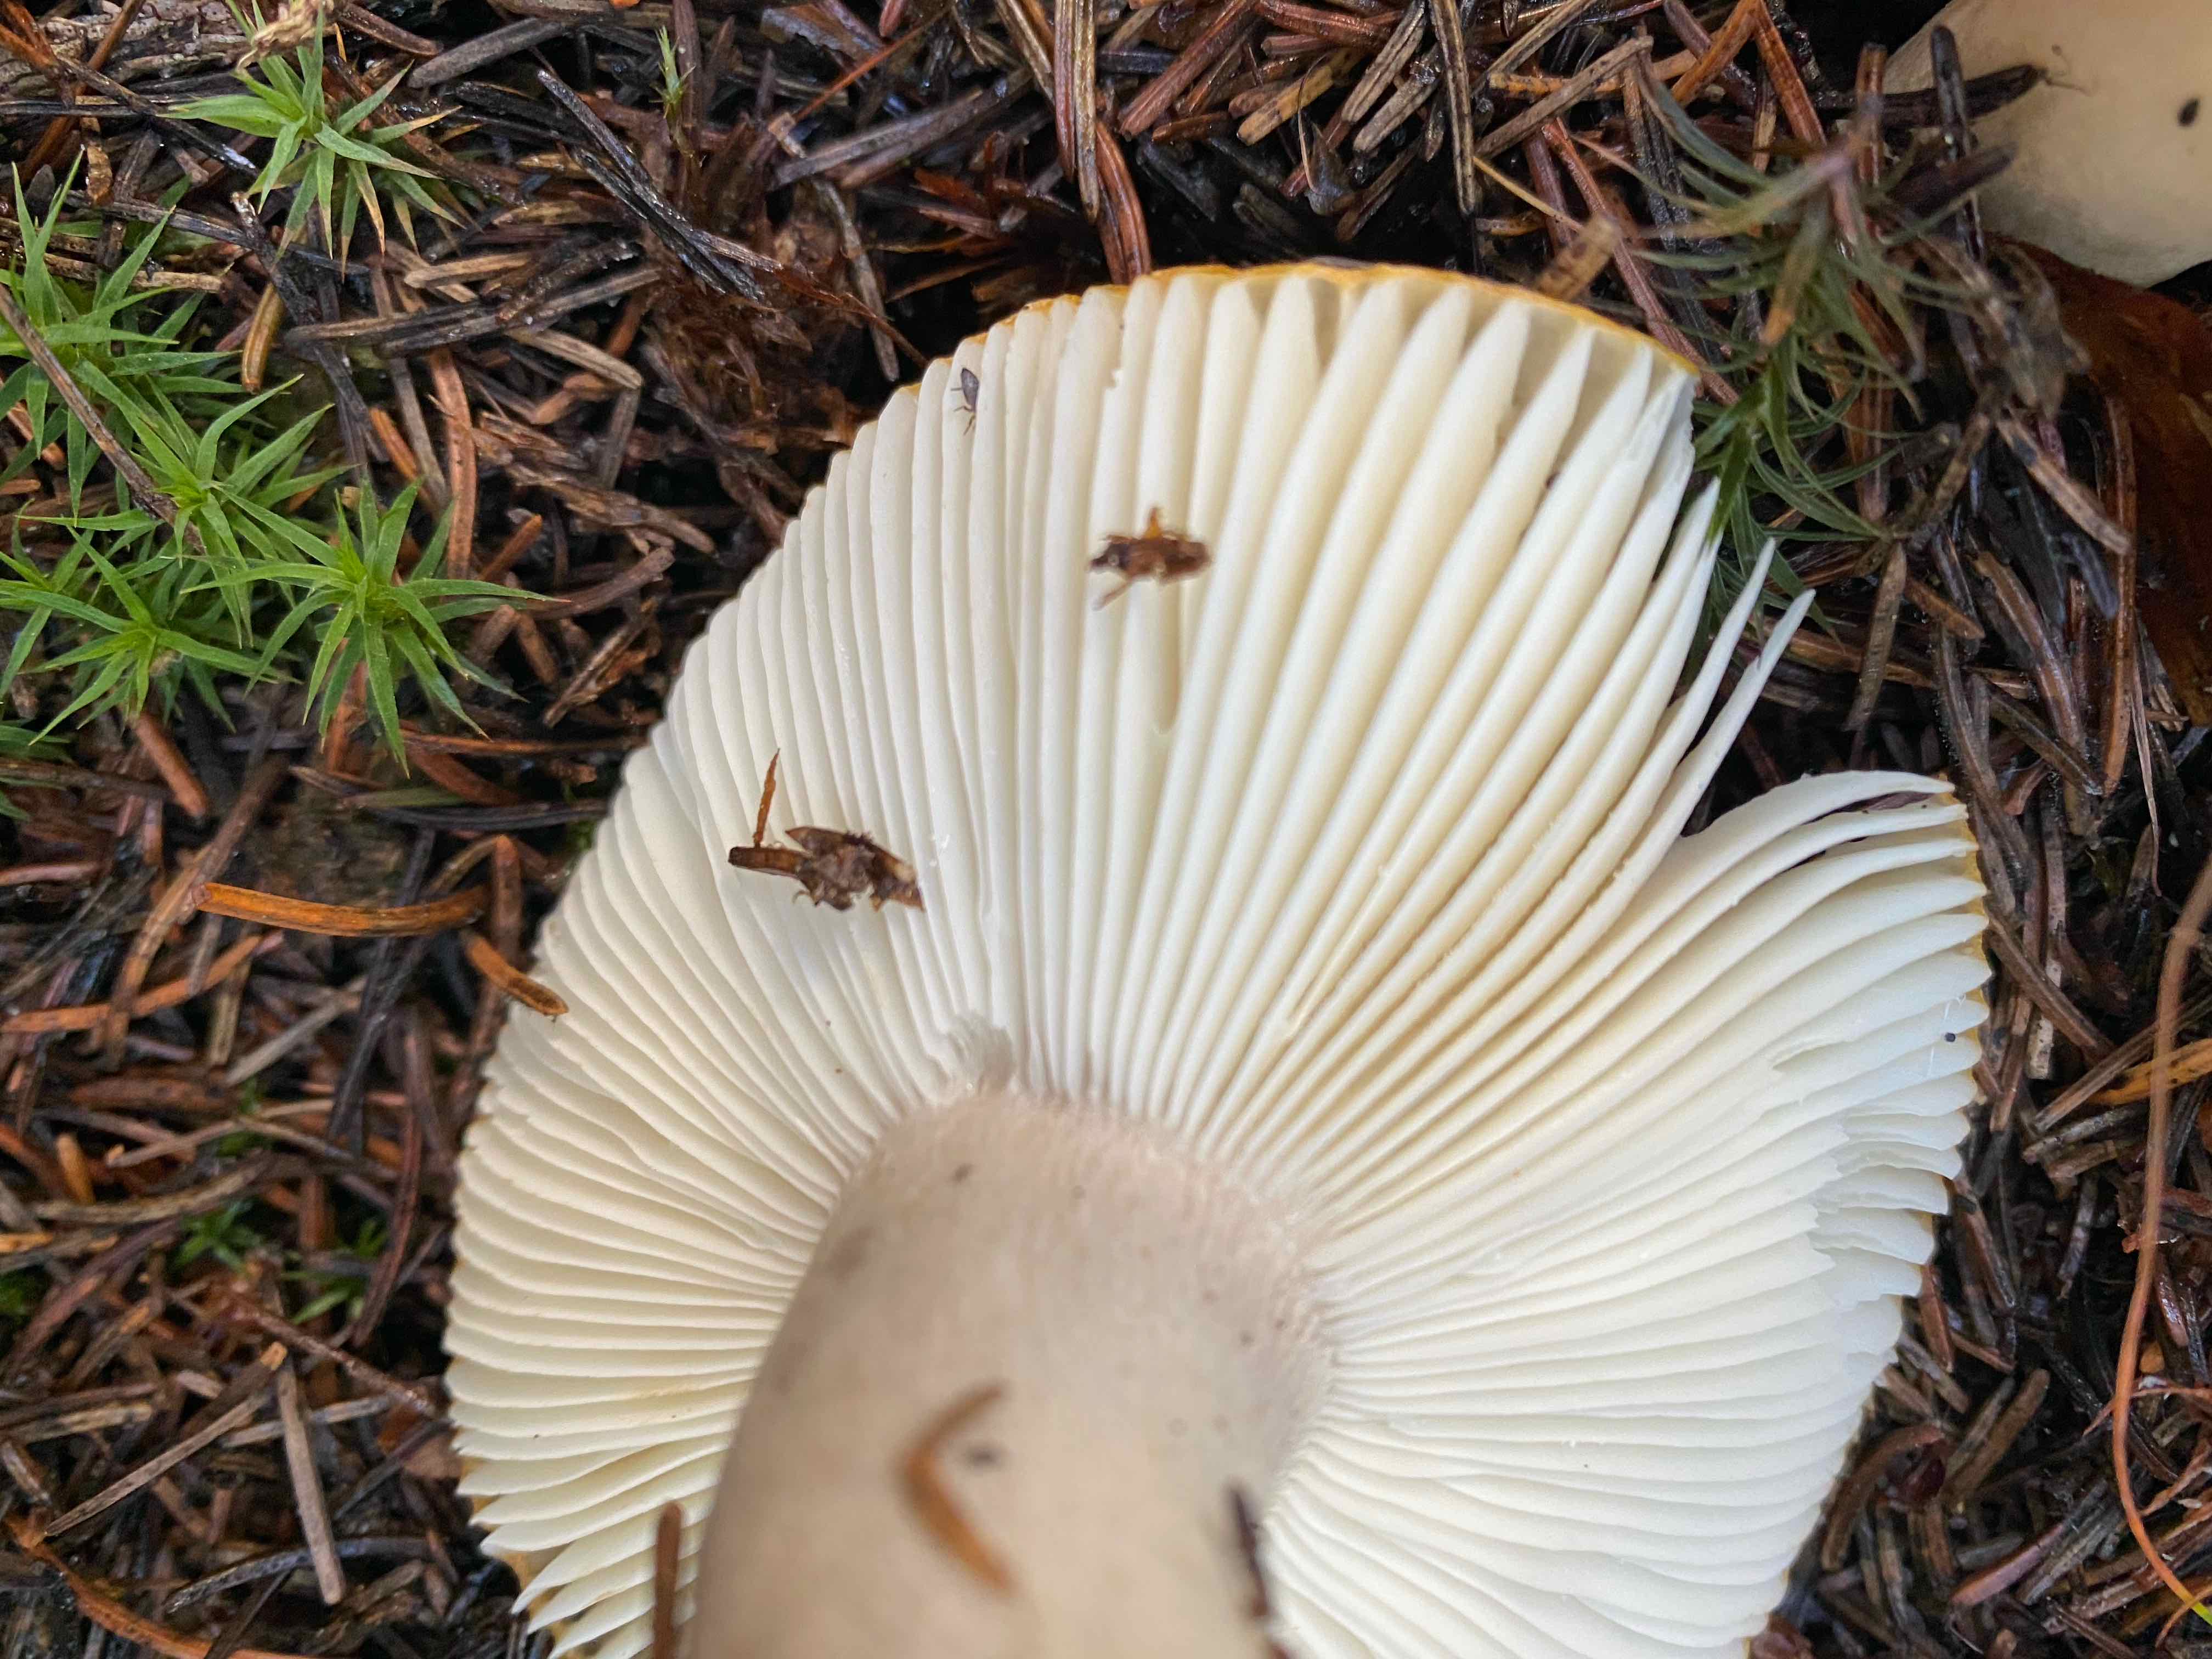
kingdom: Fungi
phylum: Basidiomycota
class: Agaricomycetes
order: Russulales
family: Russulaceae
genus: Russula
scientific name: Russula ochroleuca
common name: okkergul skørhat
